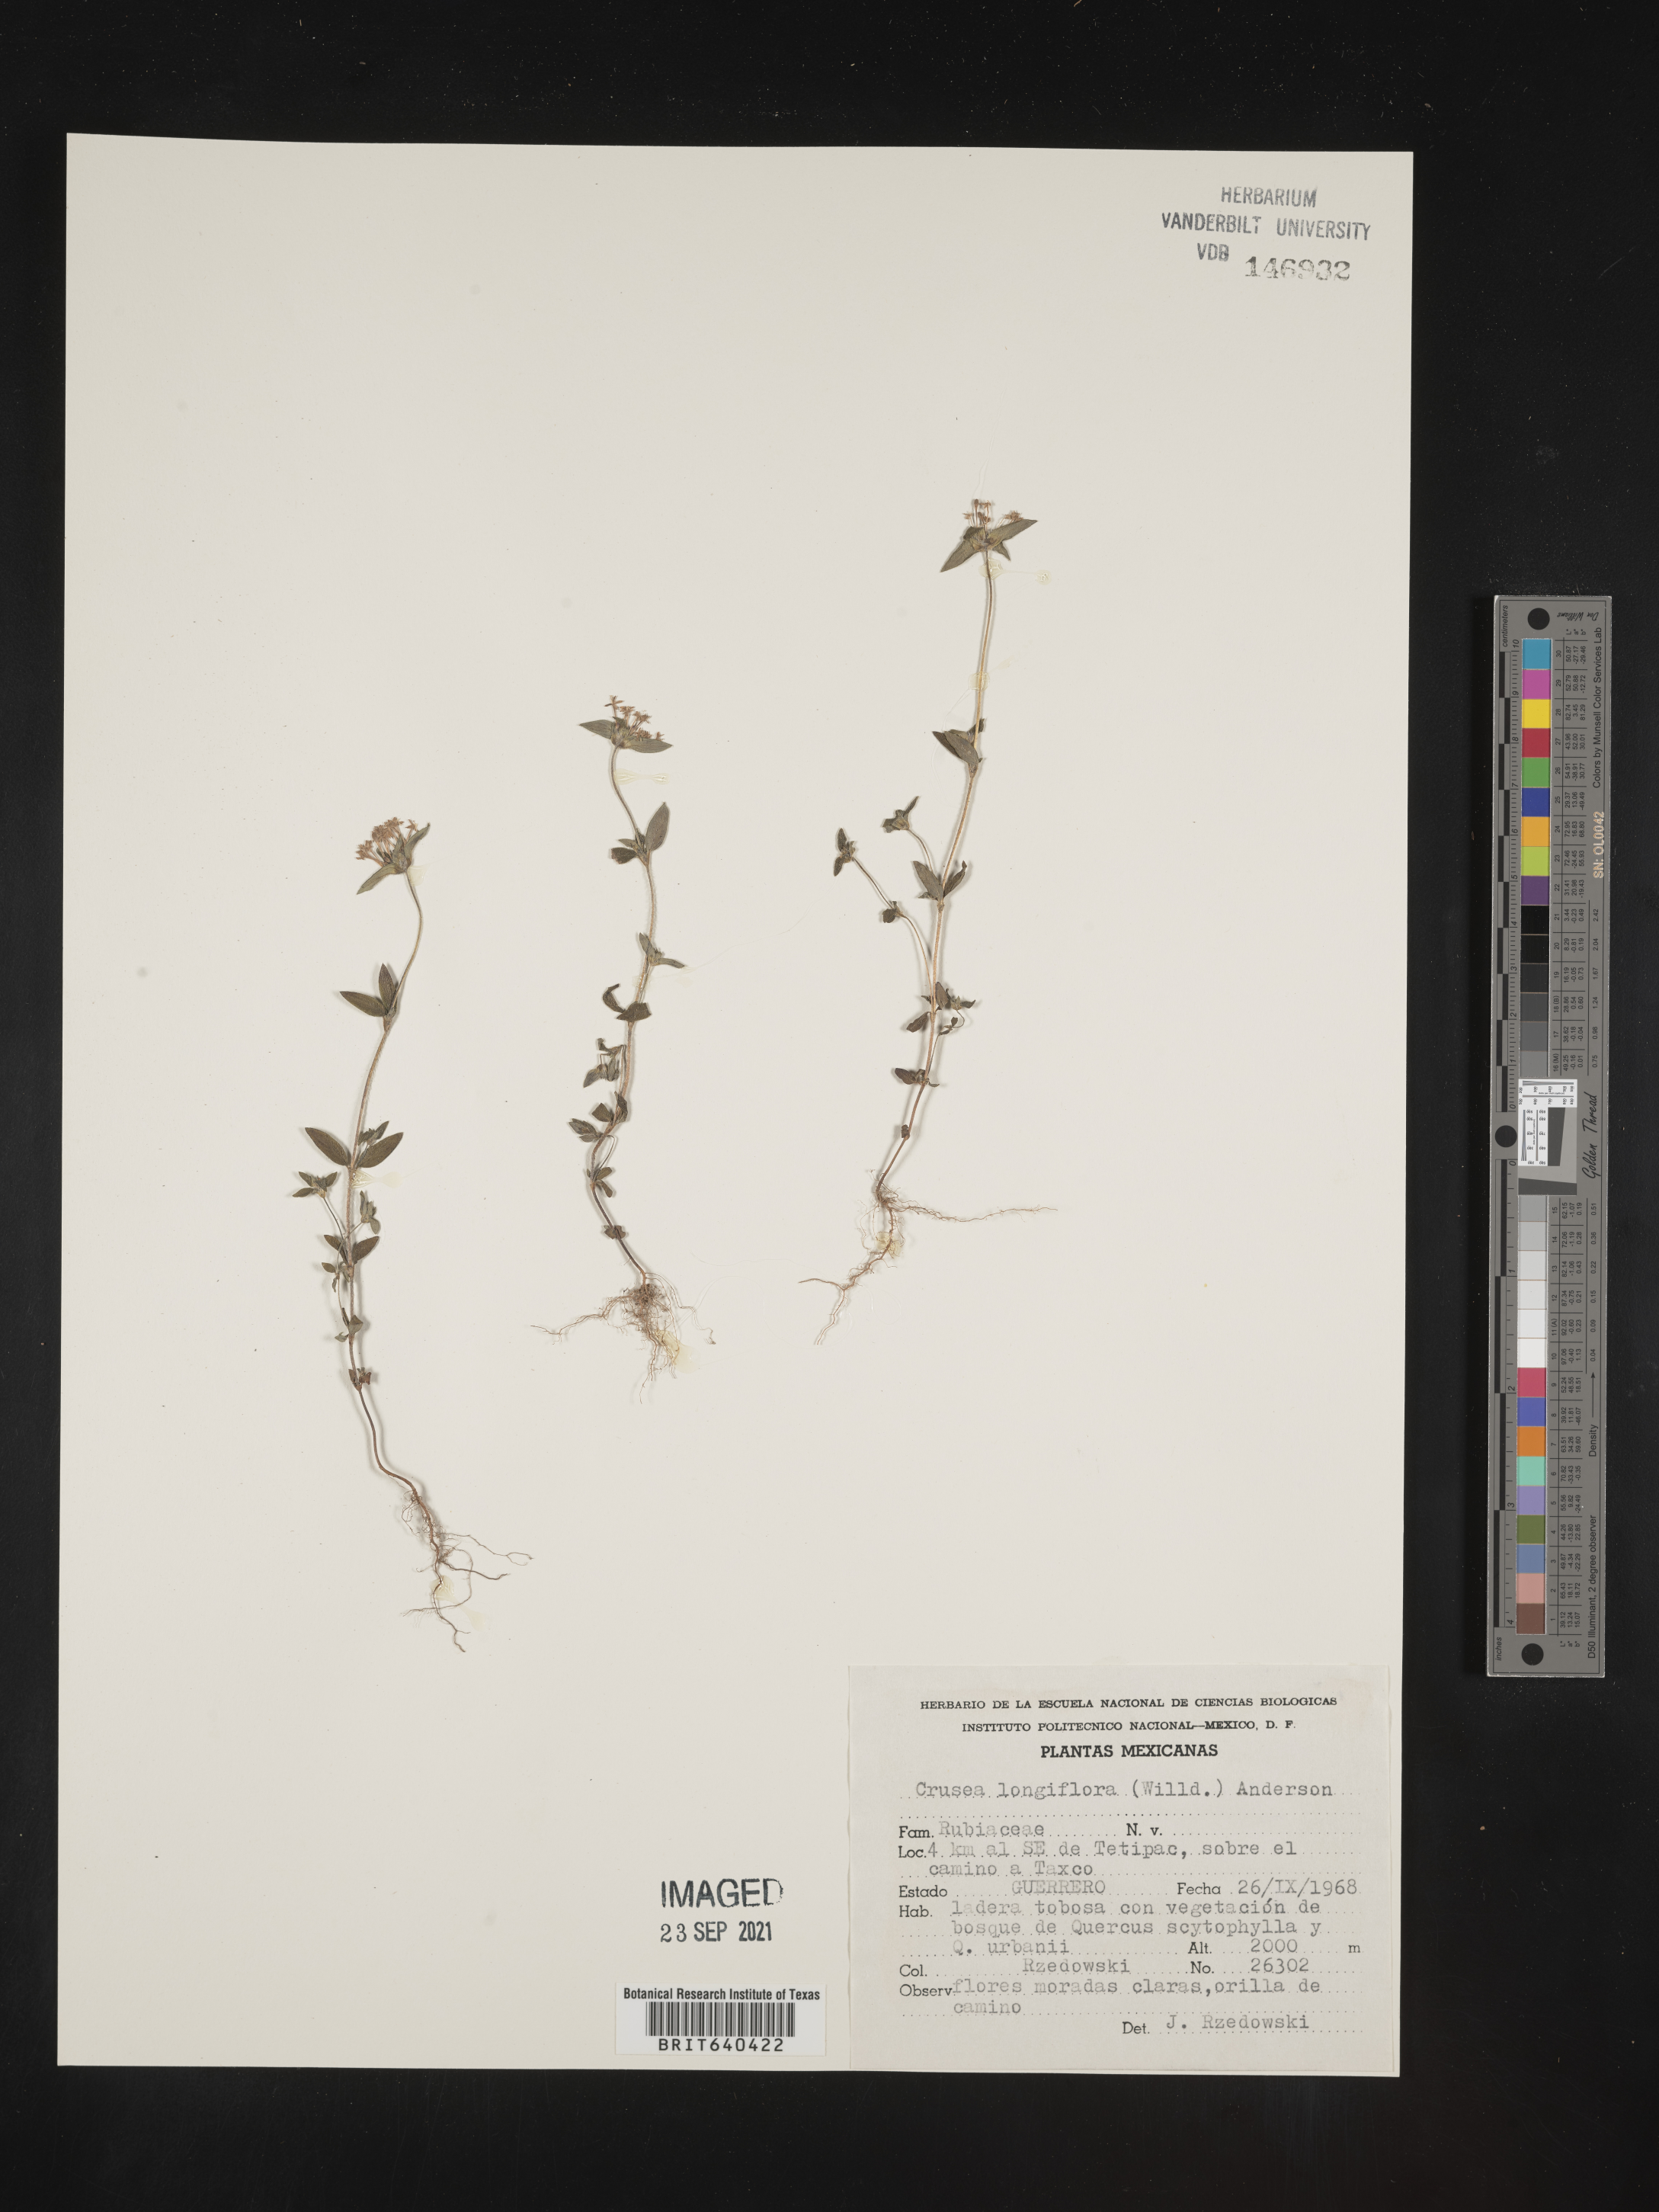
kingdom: Plantae
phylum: Tracheophyta
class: Magnoliopsida
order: Gentianales
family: Rubiaceae
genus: Crusea
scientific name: Crusea
